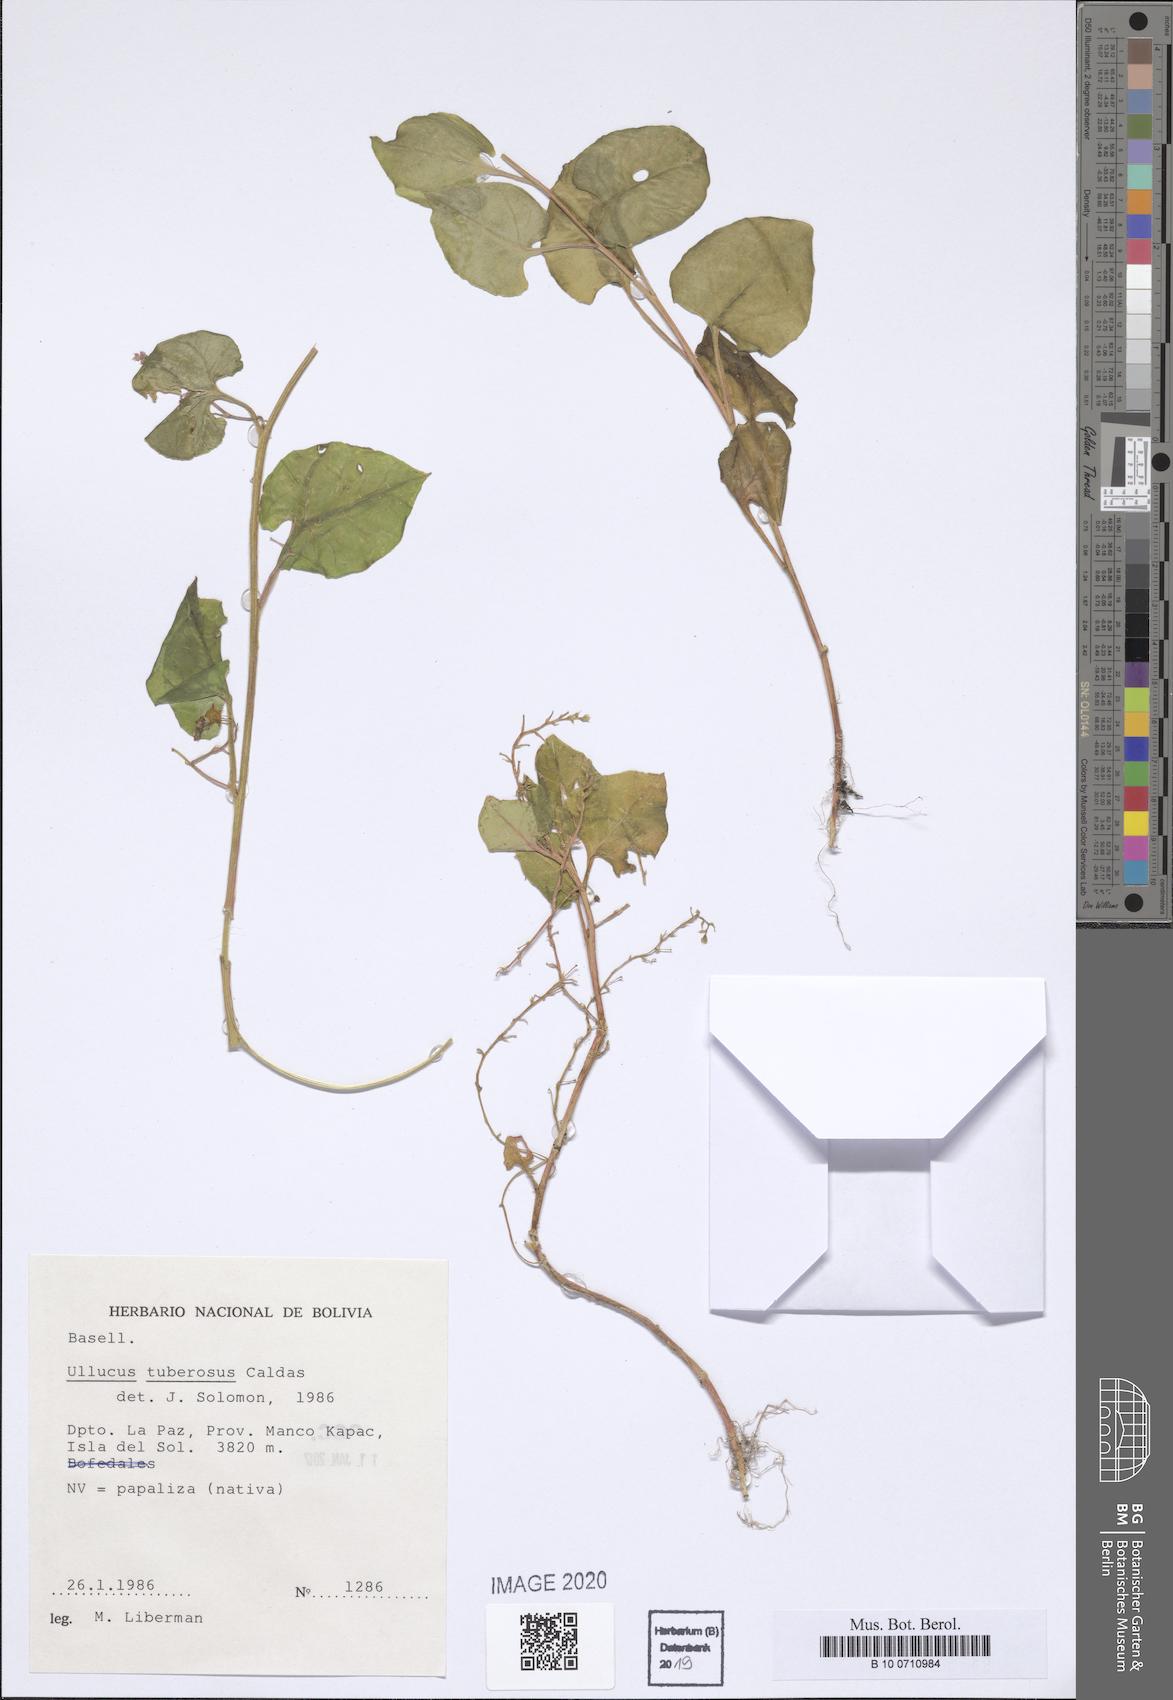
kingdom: Plantae
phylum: Tracheophyta
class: Magnoliopsida
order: Caryophyllales
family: Basellaceae
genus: Ullucus
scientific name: Ullucus tuberosus
